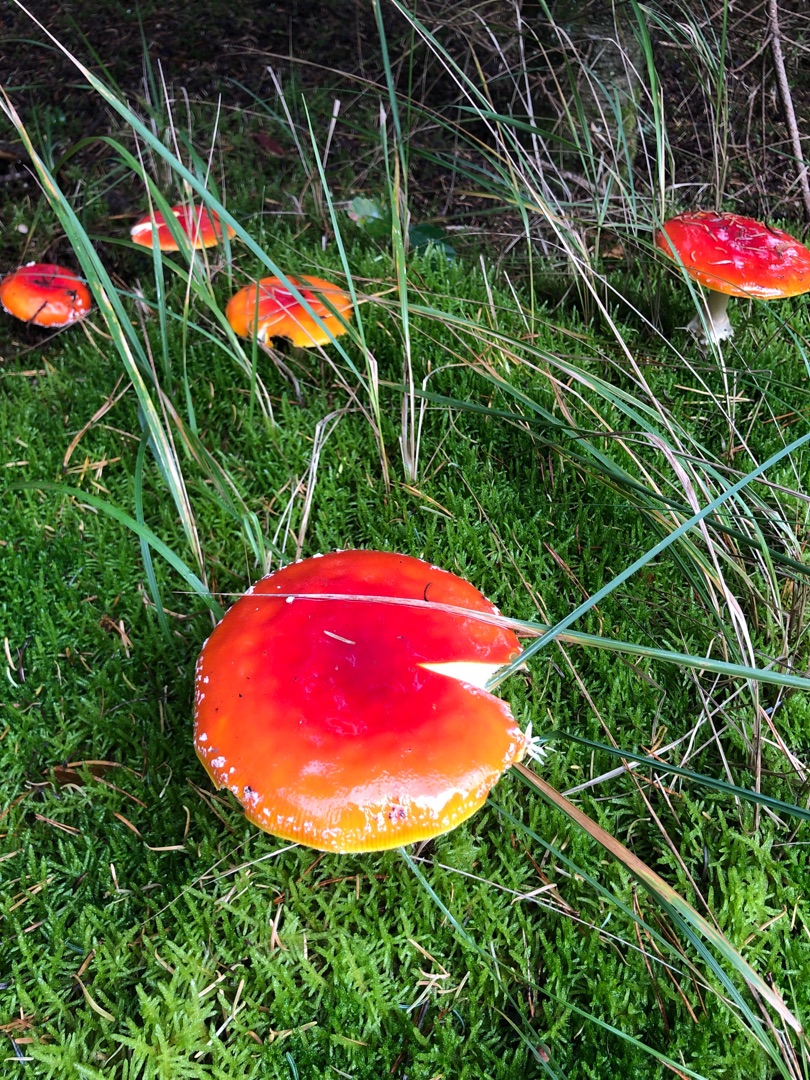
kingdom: Fungi
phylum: Basidiomycota
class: Agaricomycetes
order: Agaricales
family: Amanitaceae
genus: Amanita
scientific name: Amanita muscaria
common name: Rød fluesvamp
